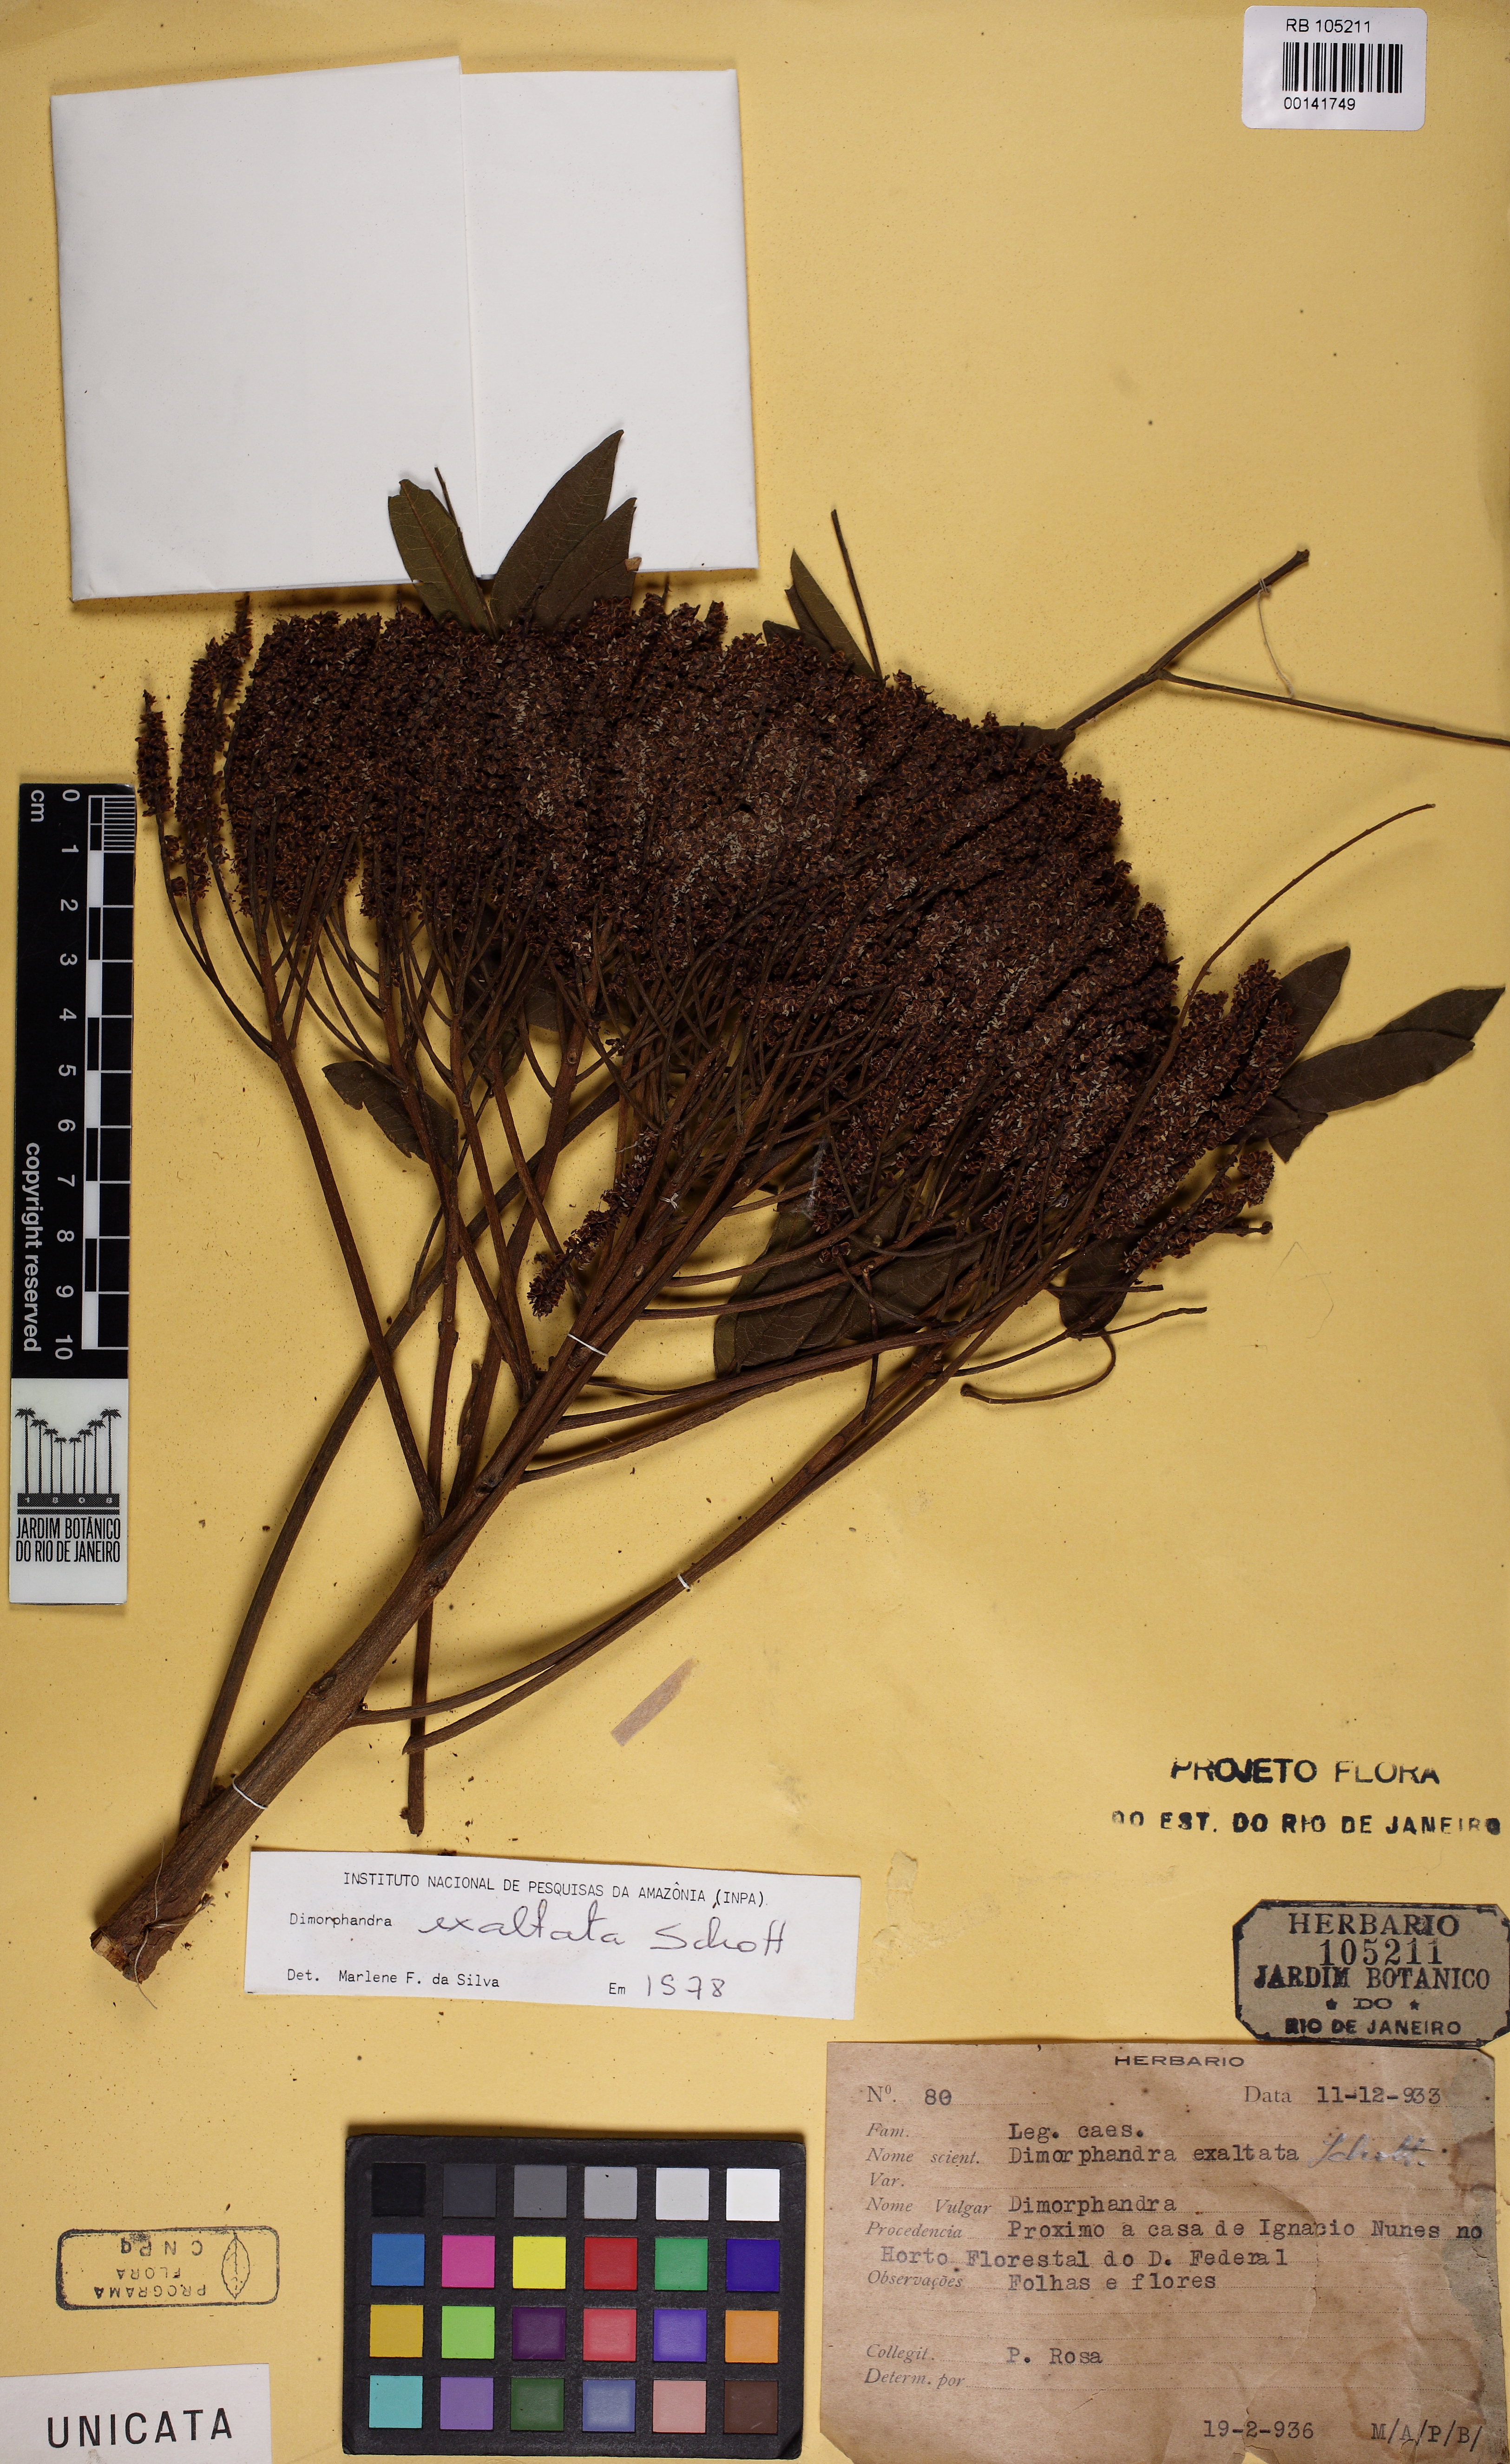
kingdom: Plantae
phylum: Tracheophyta
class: Magnoliopsida
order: Fabales
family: Fabaceae
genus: Dimorphandra
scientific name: Dimorphandra exaltata
